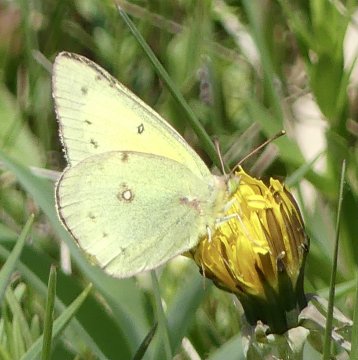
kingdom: Animalia
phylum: Arthropoda
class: Insecta
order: Lepidoptera
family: Pieridae
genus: Colias
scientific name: Colias philodice
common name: Clouded Sulphur
